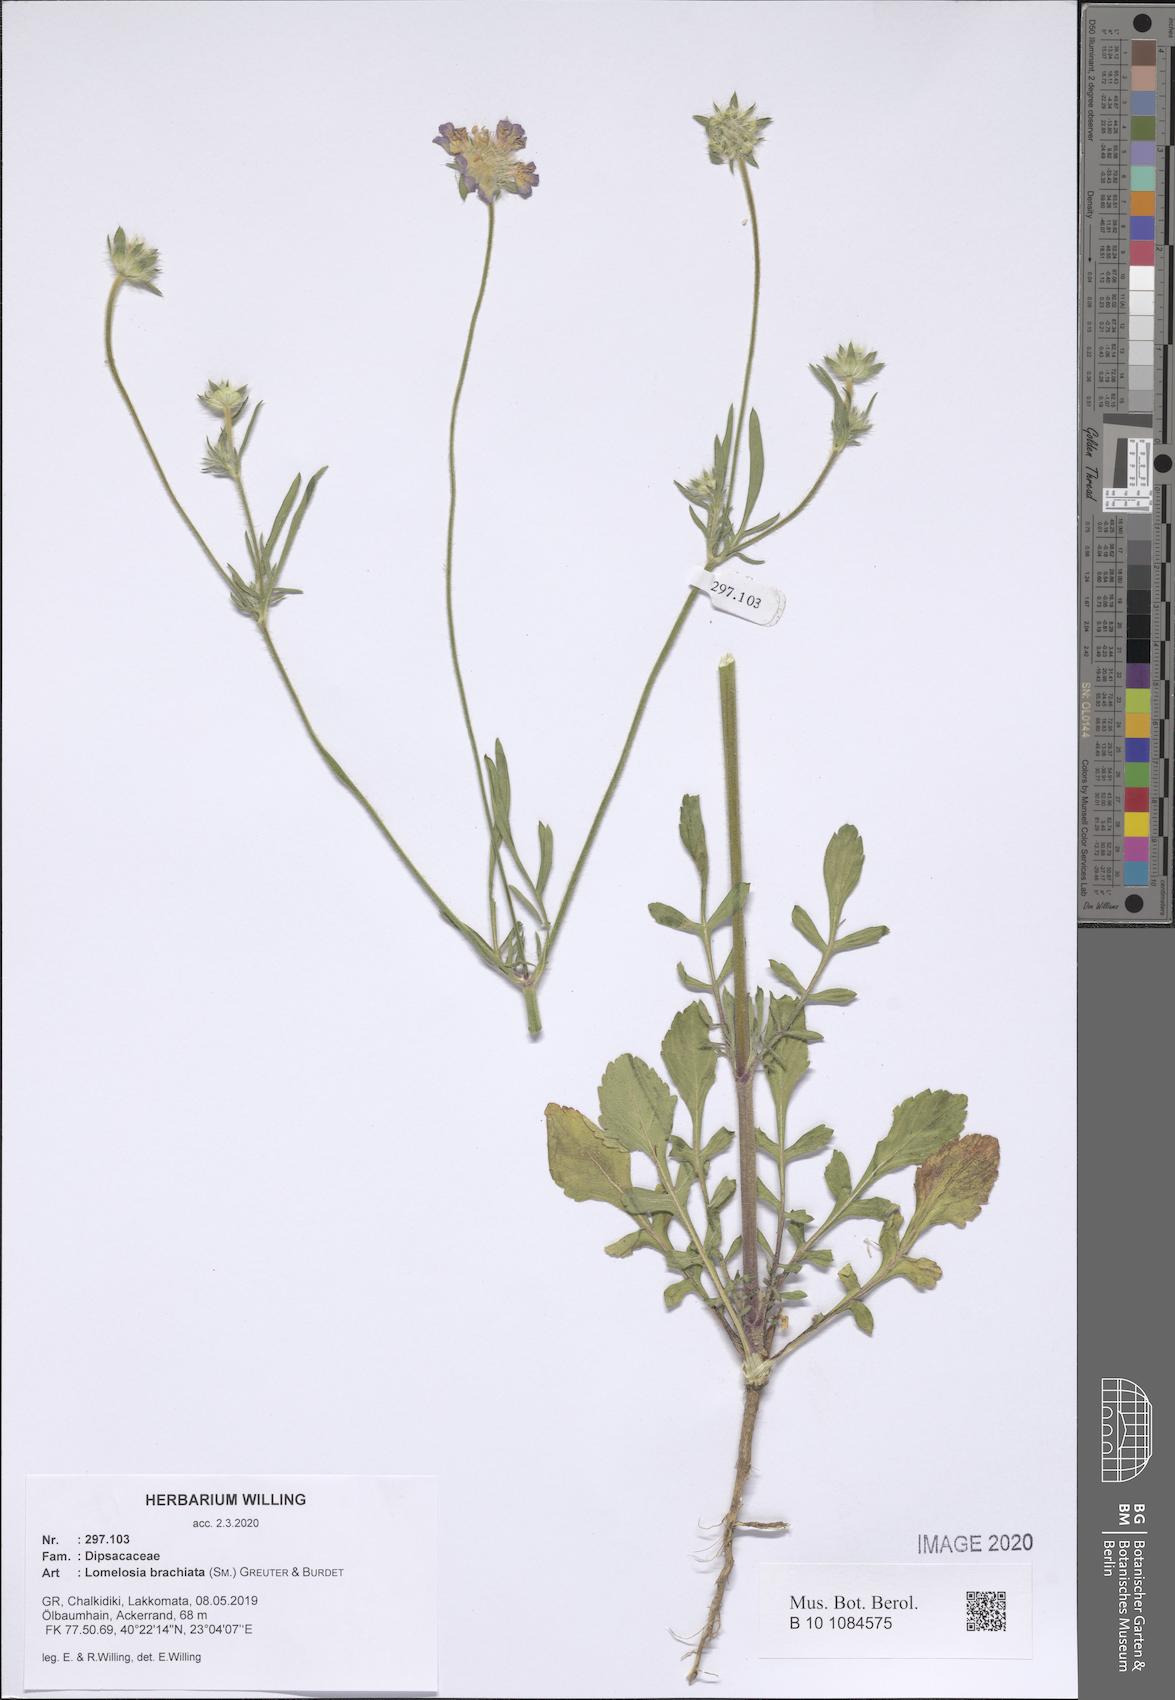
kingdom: Plantae
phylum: Tracheophyta
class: Magnoliopsida
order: Dipsacales
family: Caprifoliaceae
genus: Lomelosia
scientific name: Lomelosia brachiata
